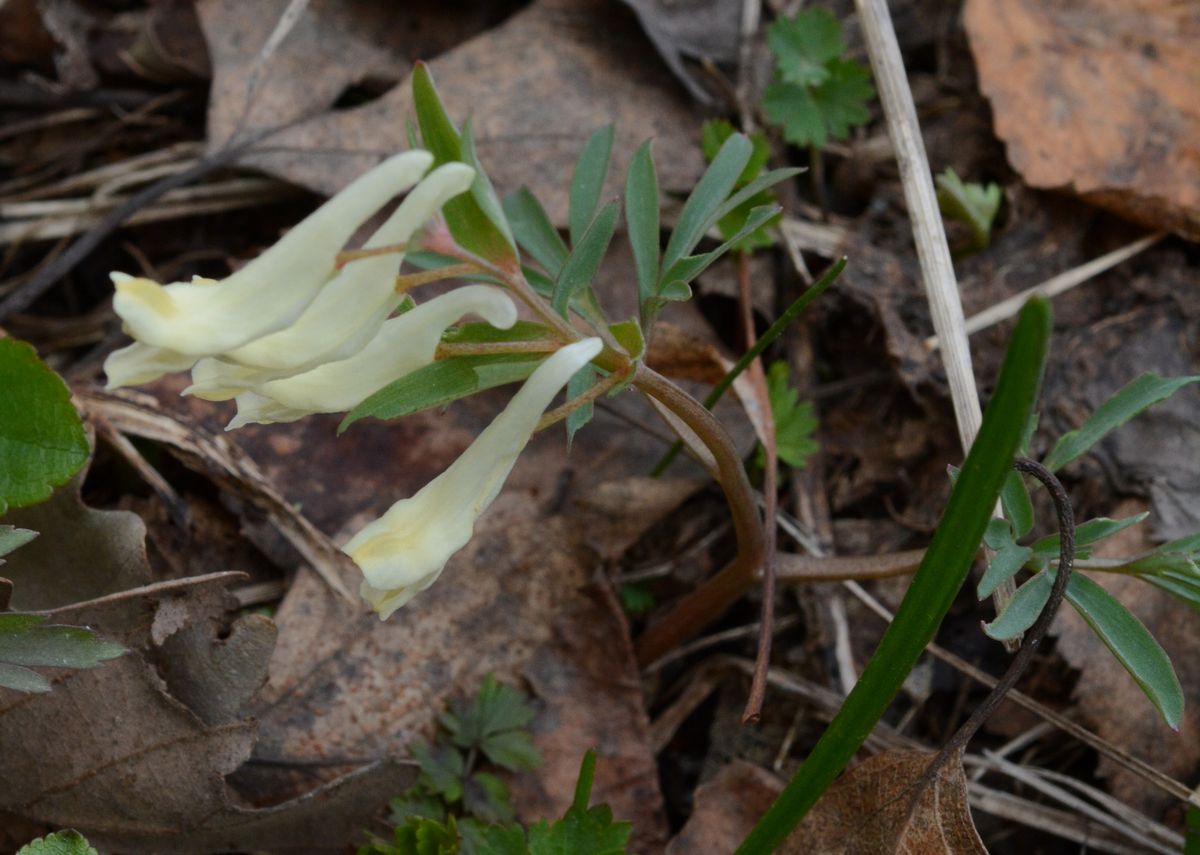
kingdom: Plantae
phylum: Tracheophyta
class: Magnoliopsida
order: Ranunculales
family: Papaveraceae
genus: Corydalis
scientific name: Corydalis angustifolia
